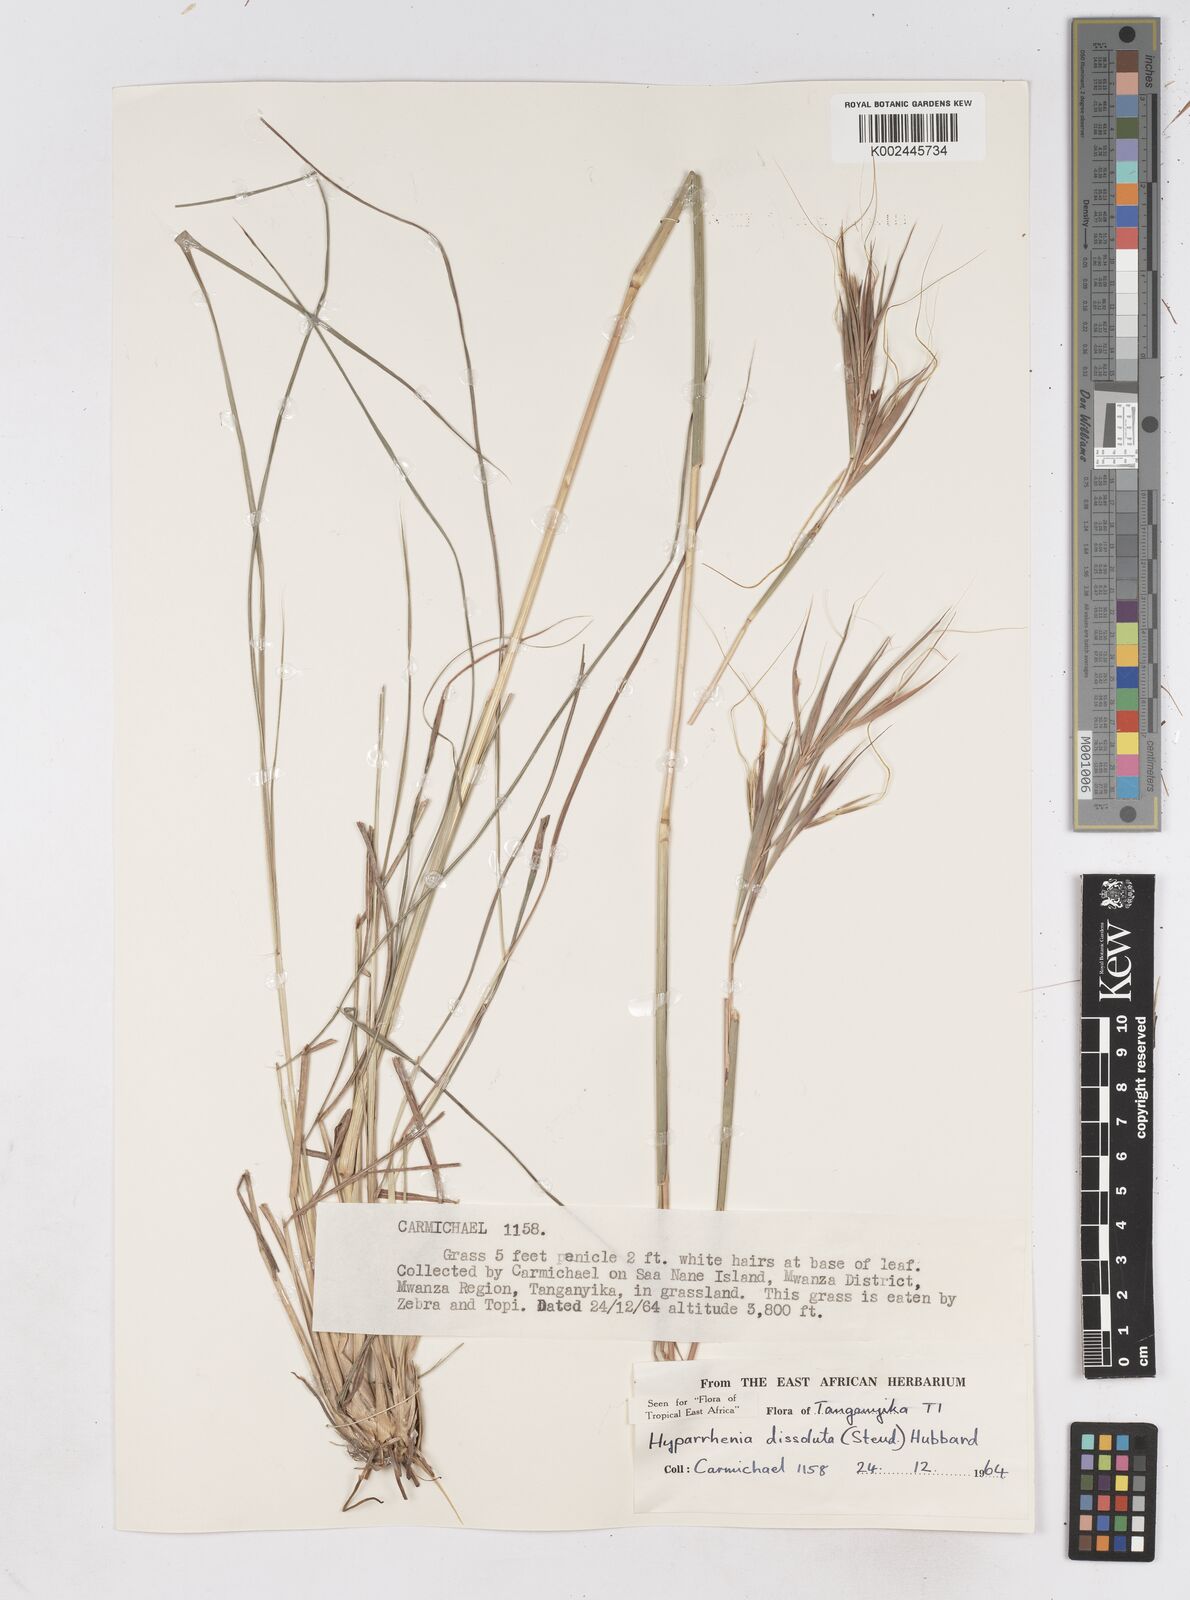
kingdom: Plantae
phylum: Tracheophyta
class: Liliopsida
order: Poales
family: Poaceae
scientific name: Poaceae
